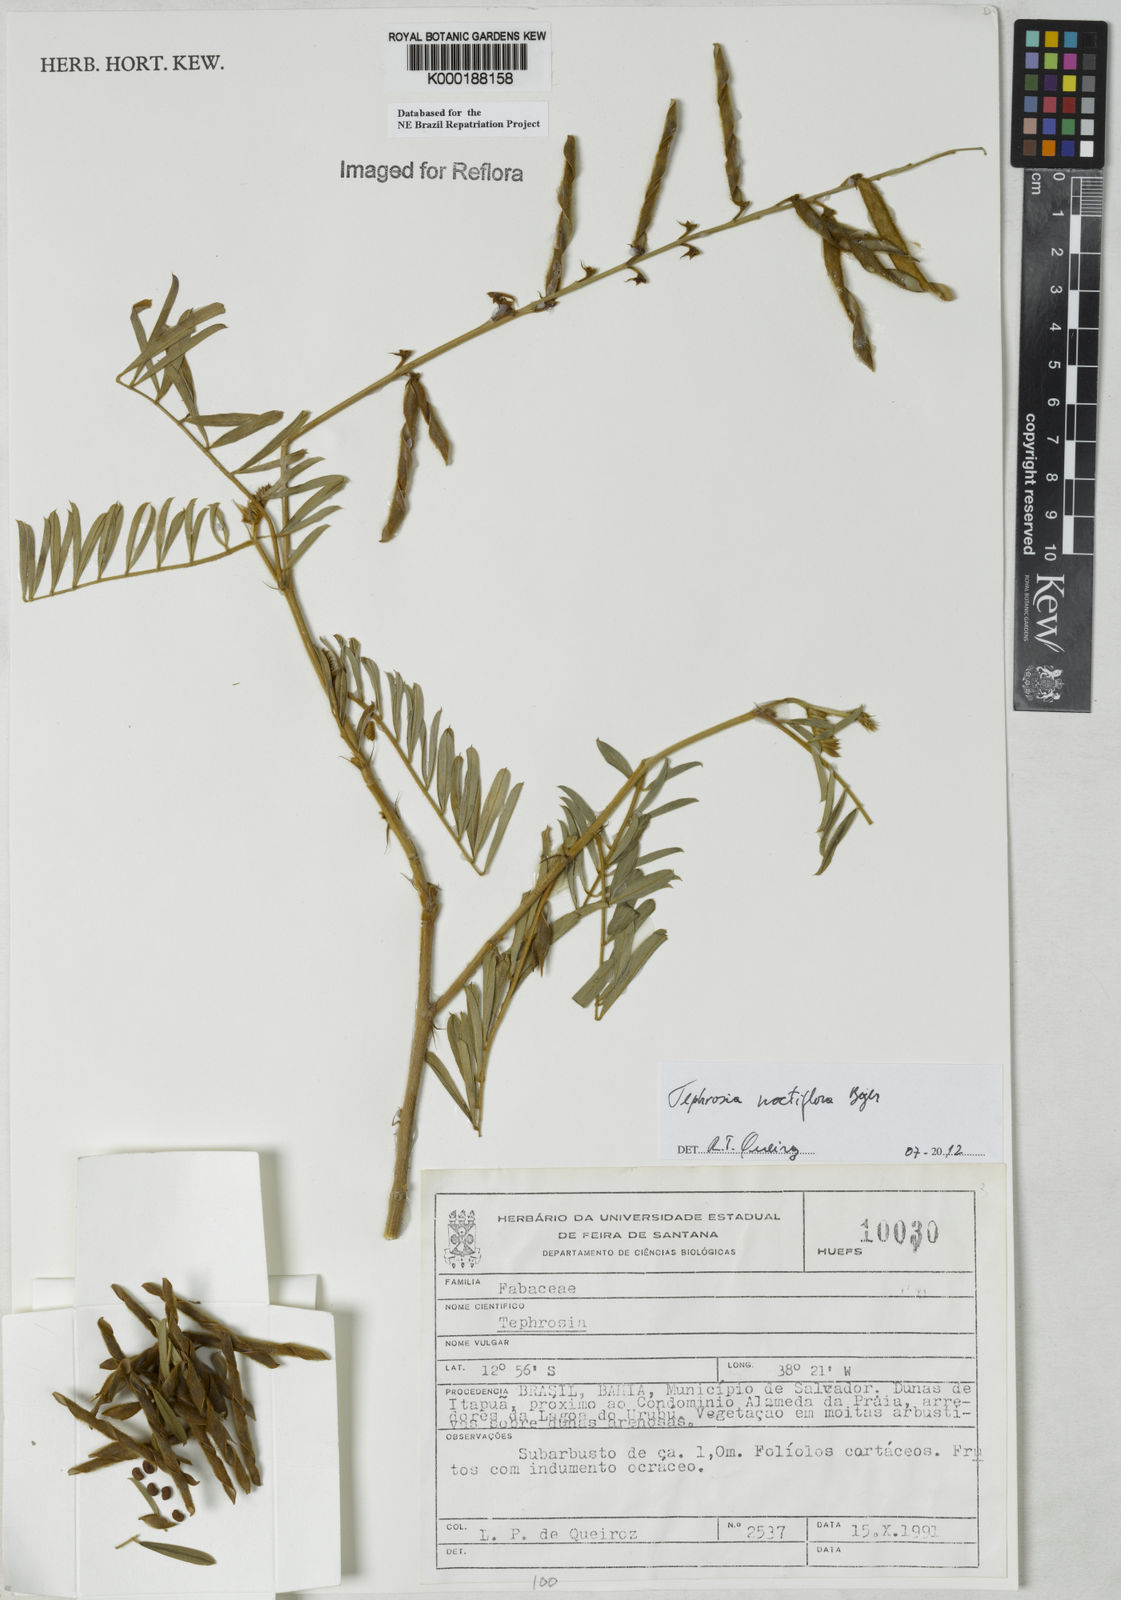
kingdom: Plantae
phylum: Tracheophyta
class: Magnoliopsida
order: Fabales
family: Fabaceae
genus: Tephrosia
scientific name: Tephrosia
